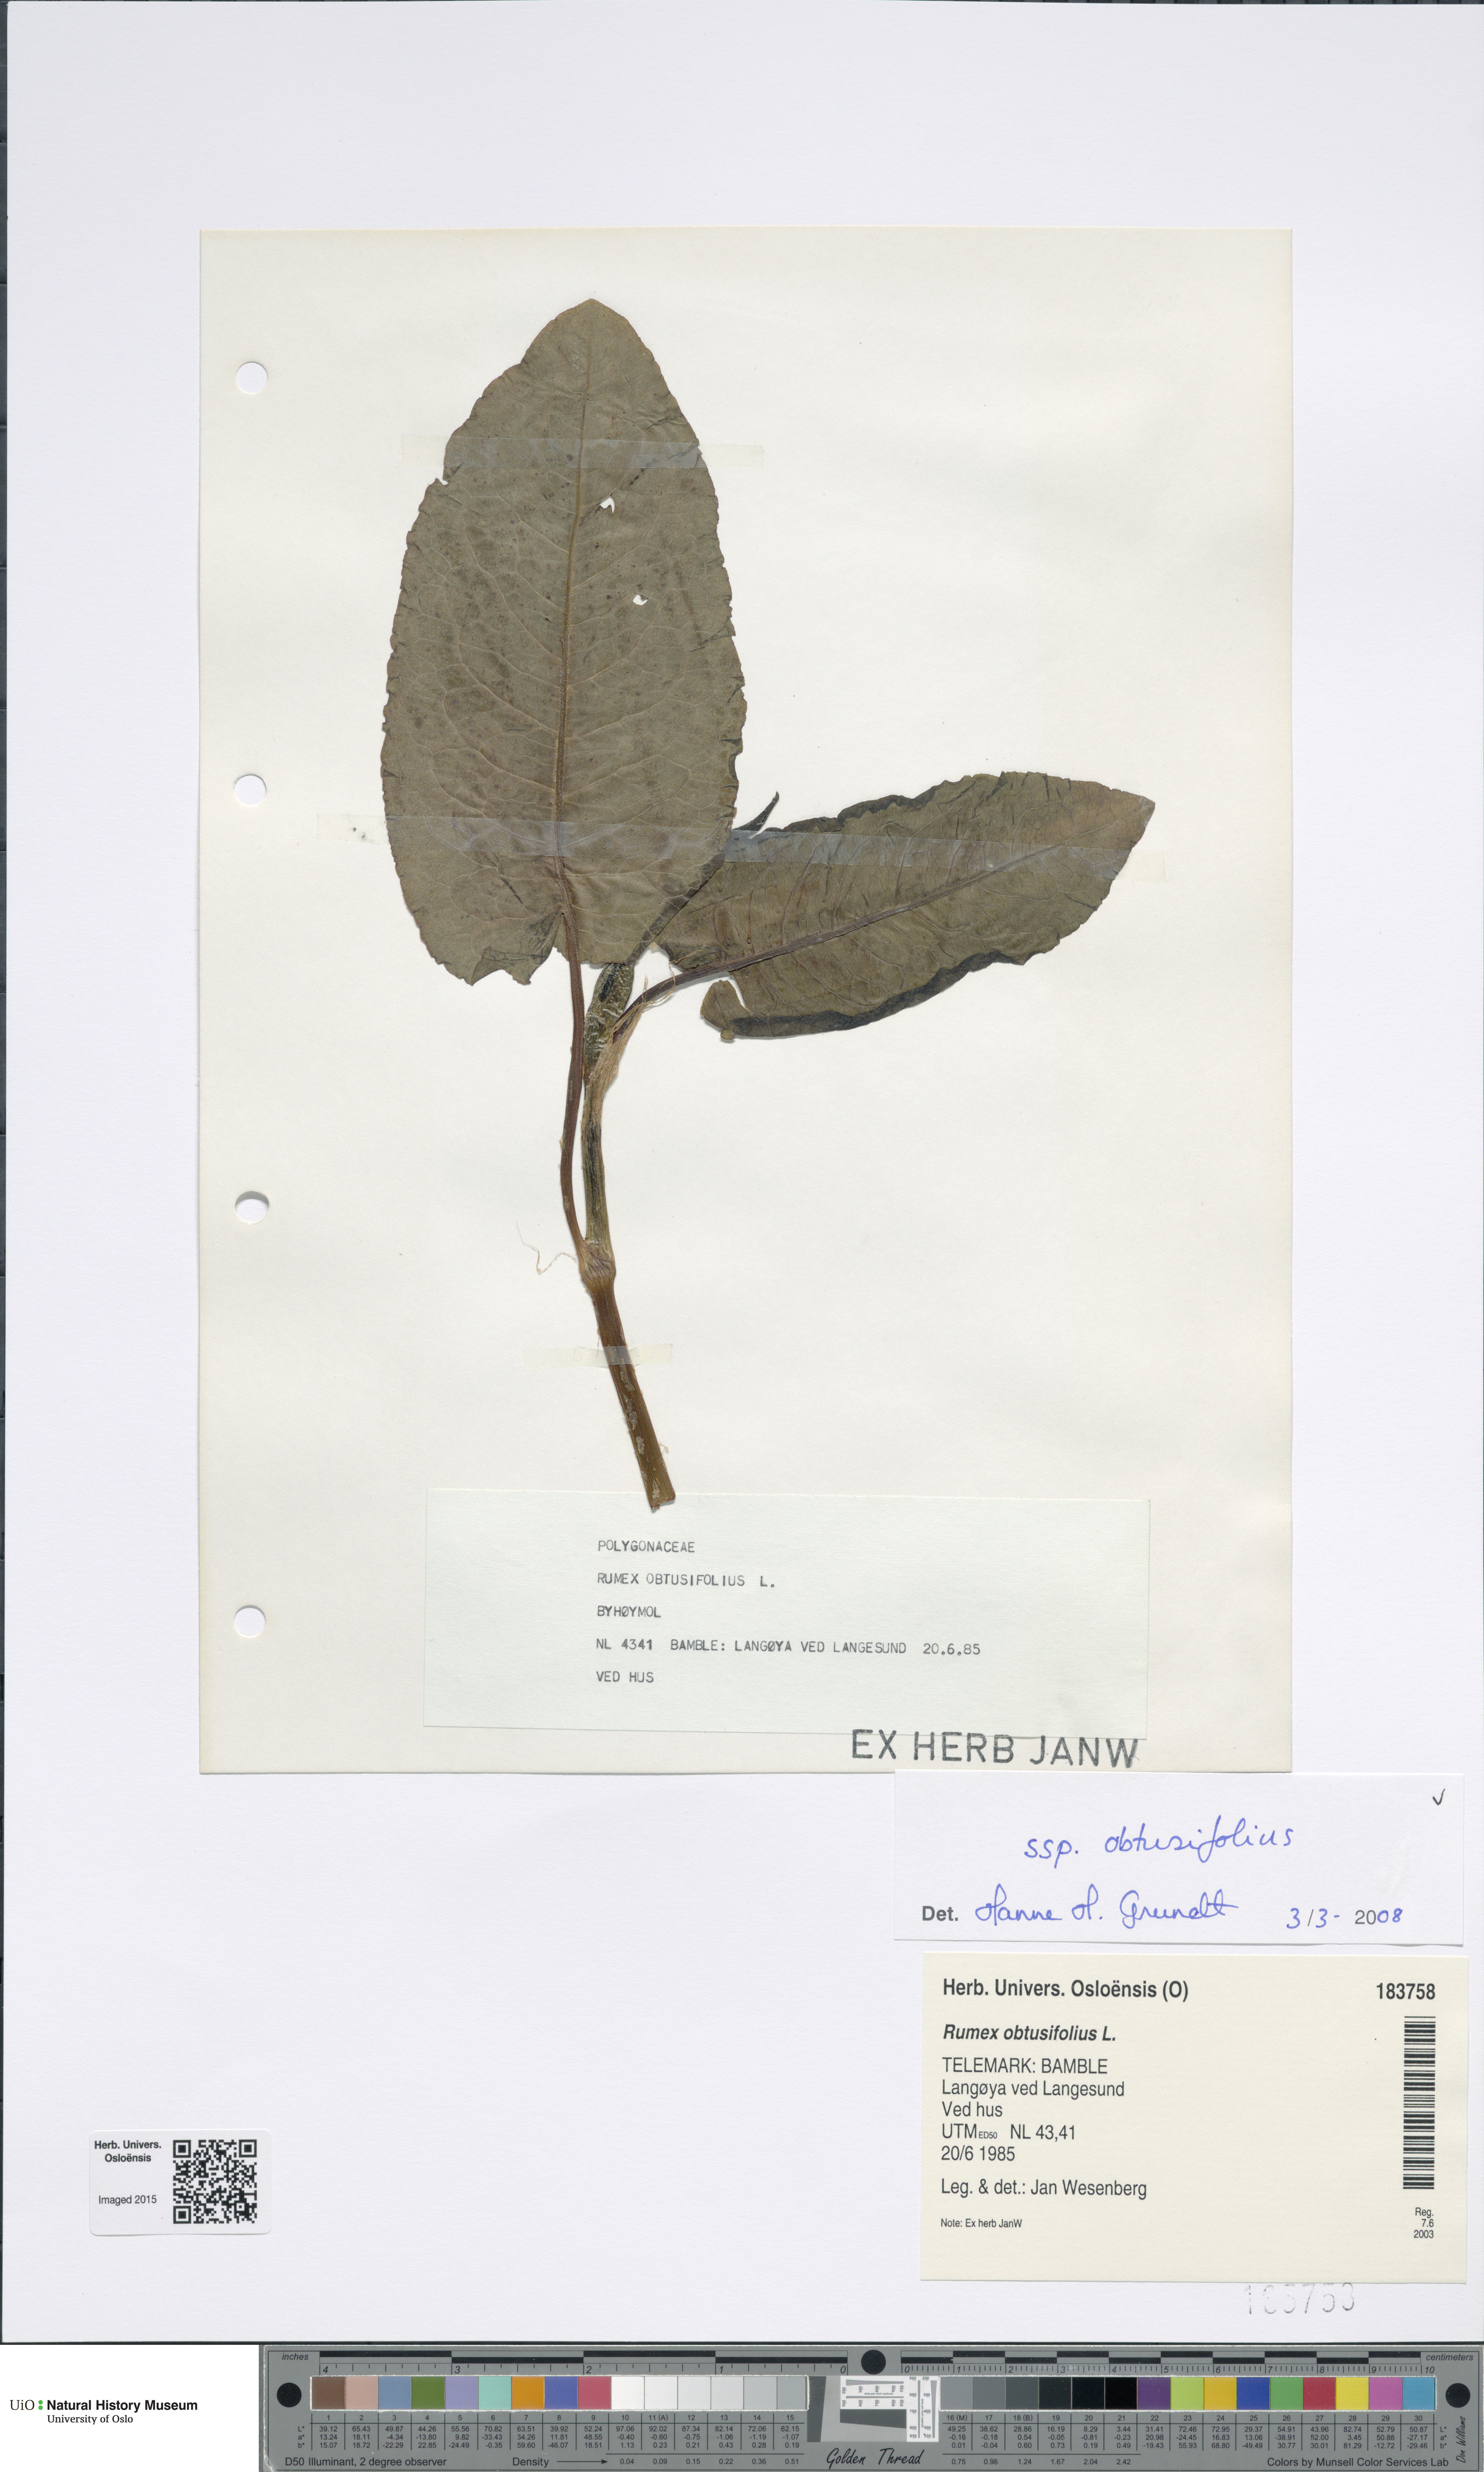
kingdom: Plantae
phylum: Tracheophyta
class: Magnoliopsida
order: Caryophyllales
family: Polygonaceae
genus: Rumex
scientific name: Rumex obtusifolius
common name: Bitter dock
